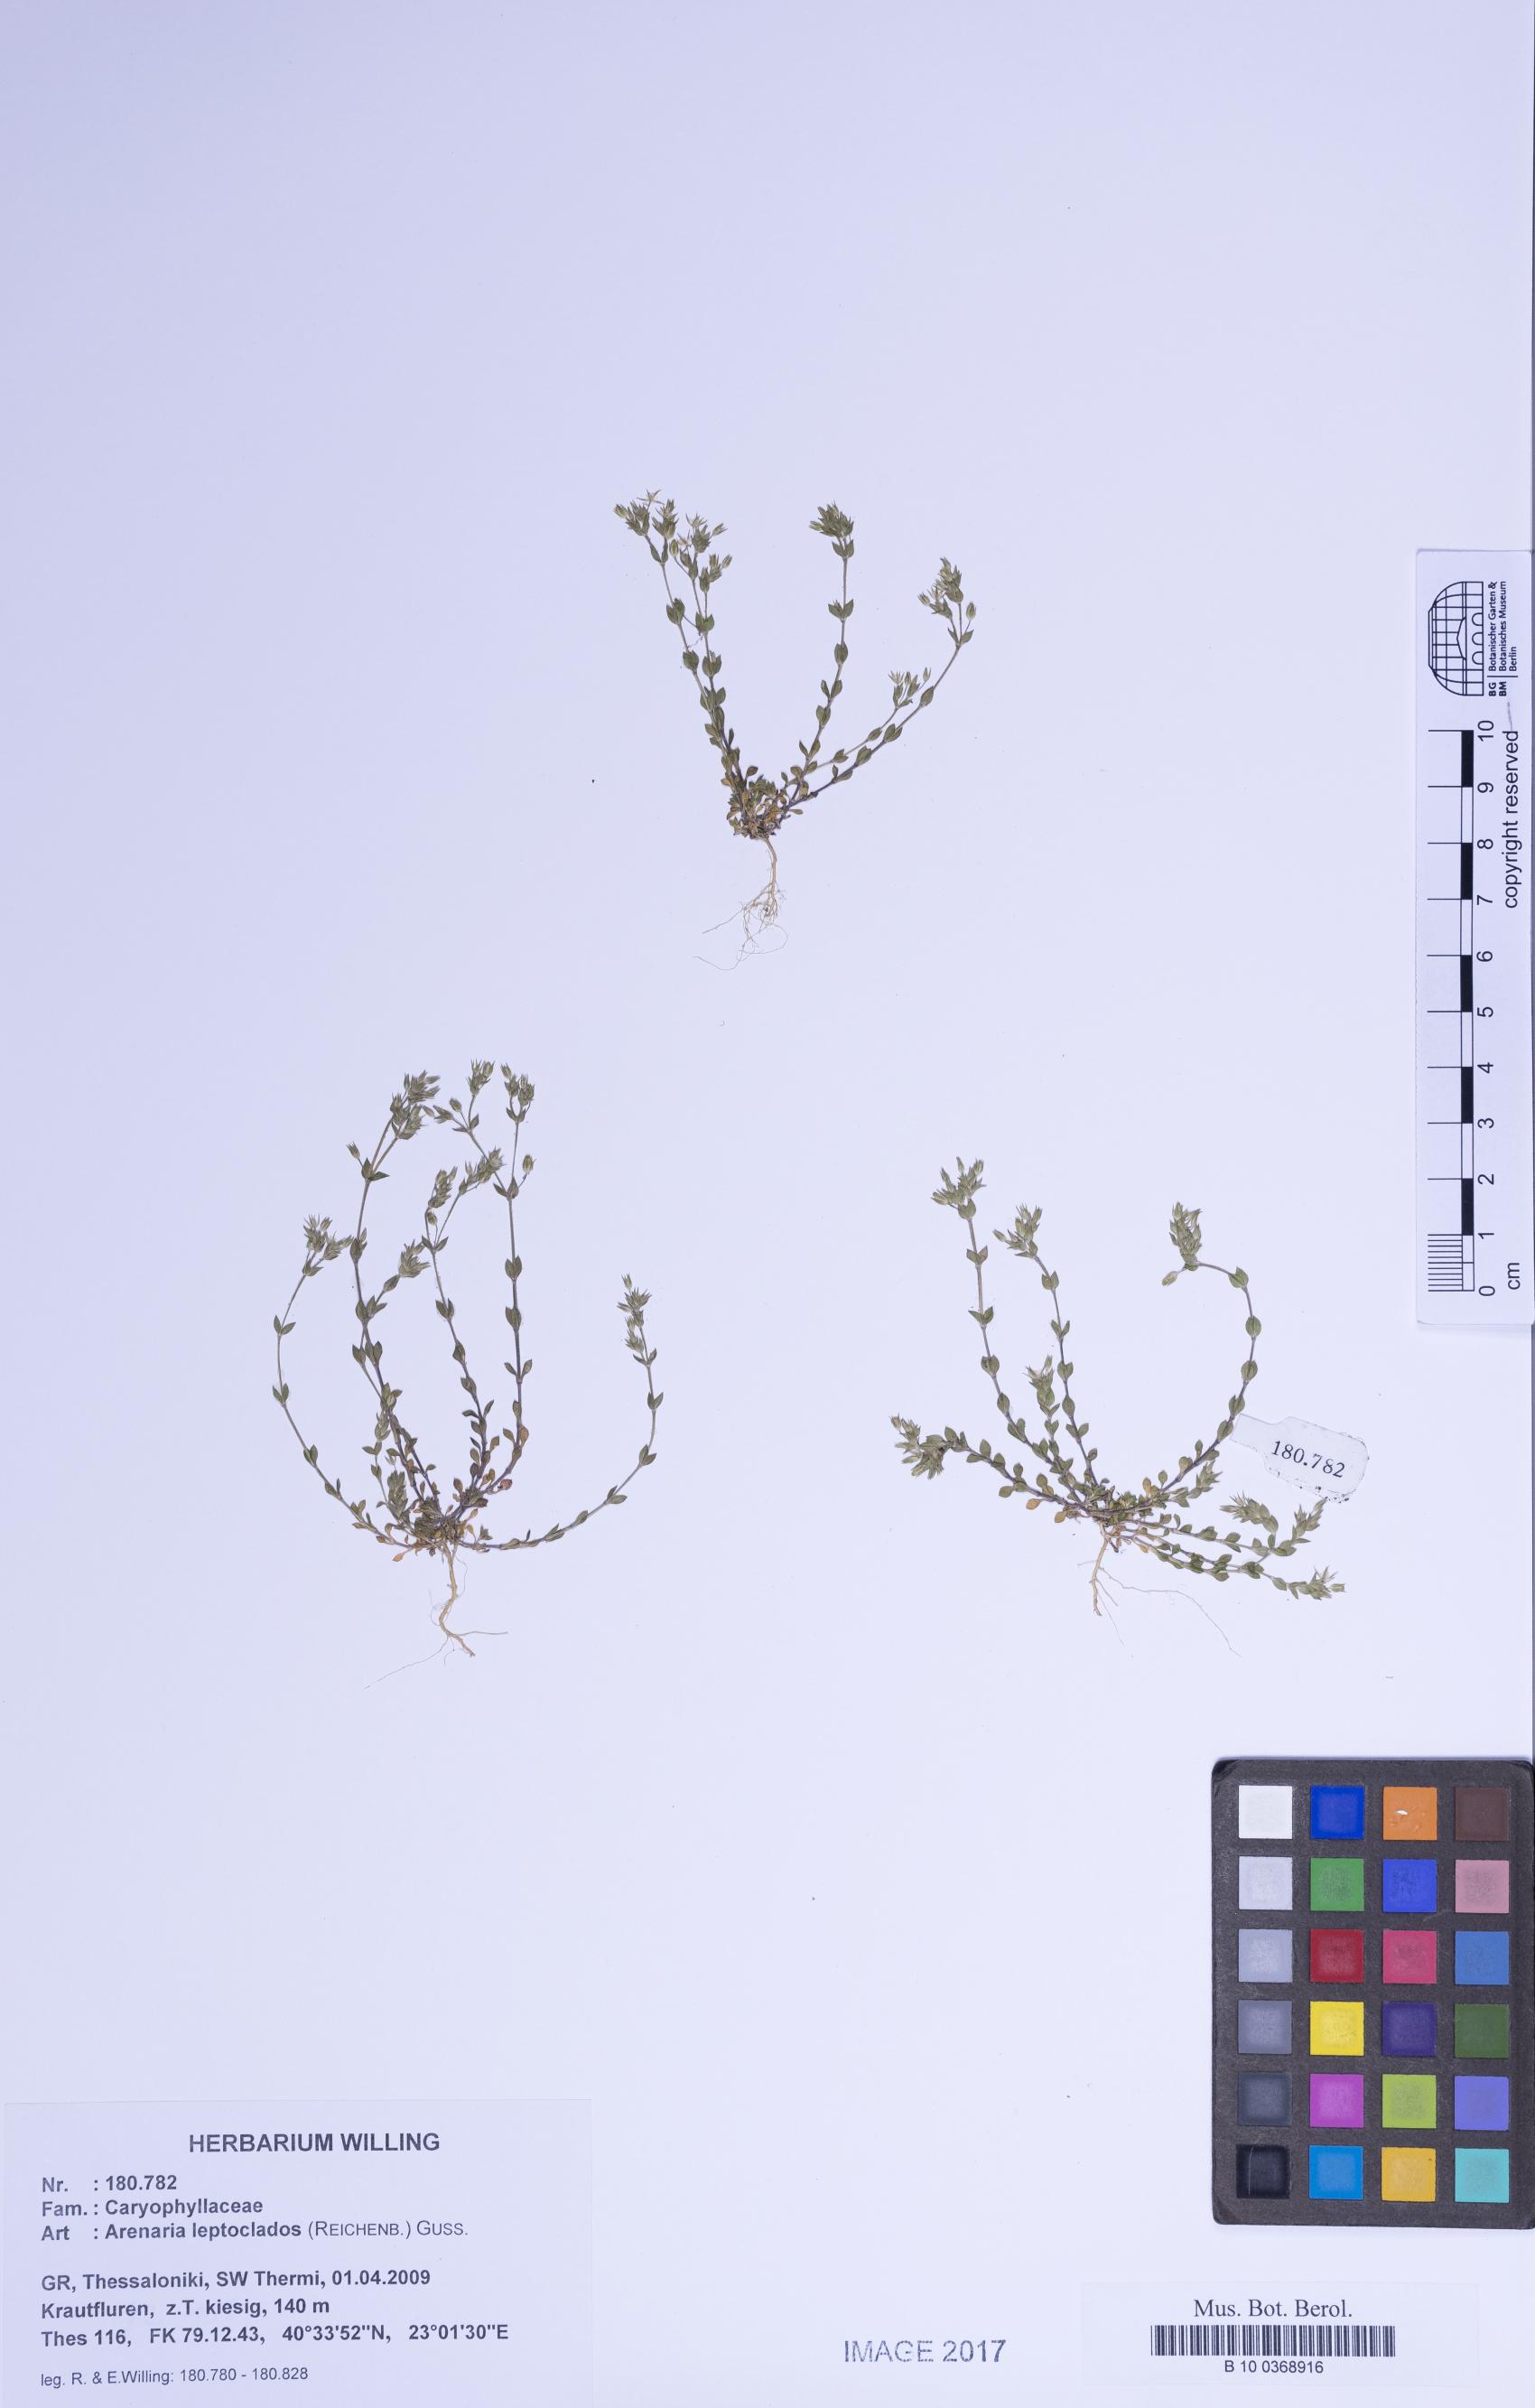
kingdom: Plantae
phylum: Tracheophyta
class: Magnoliopsida
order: Caryophyllales
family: Caryophyllaceae
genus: Arenaria
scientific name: Arenaria leptoclados
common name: Thyme-leaved sandwort
